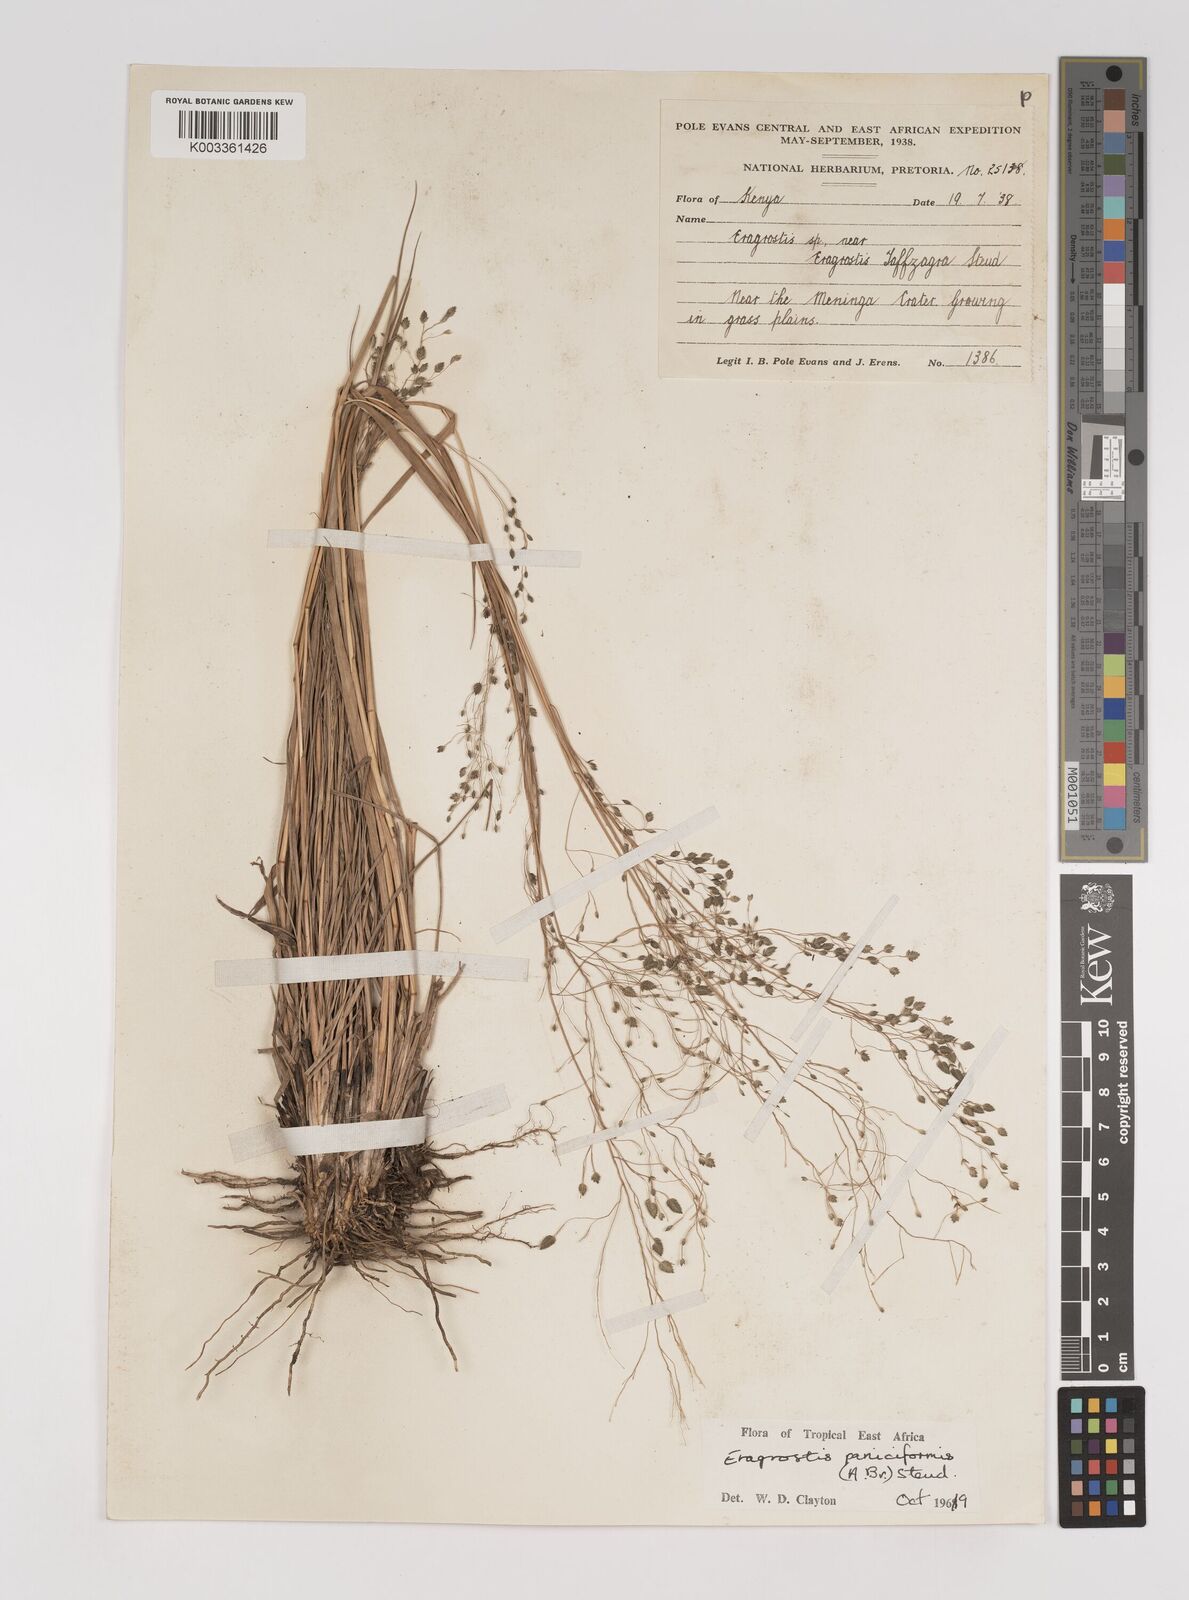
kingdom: Plantae
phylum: Tracheophyta
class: Liliopsida
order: Poales
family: Poaceae
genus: Eragrostis
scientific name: Eragrostis paniciformis
